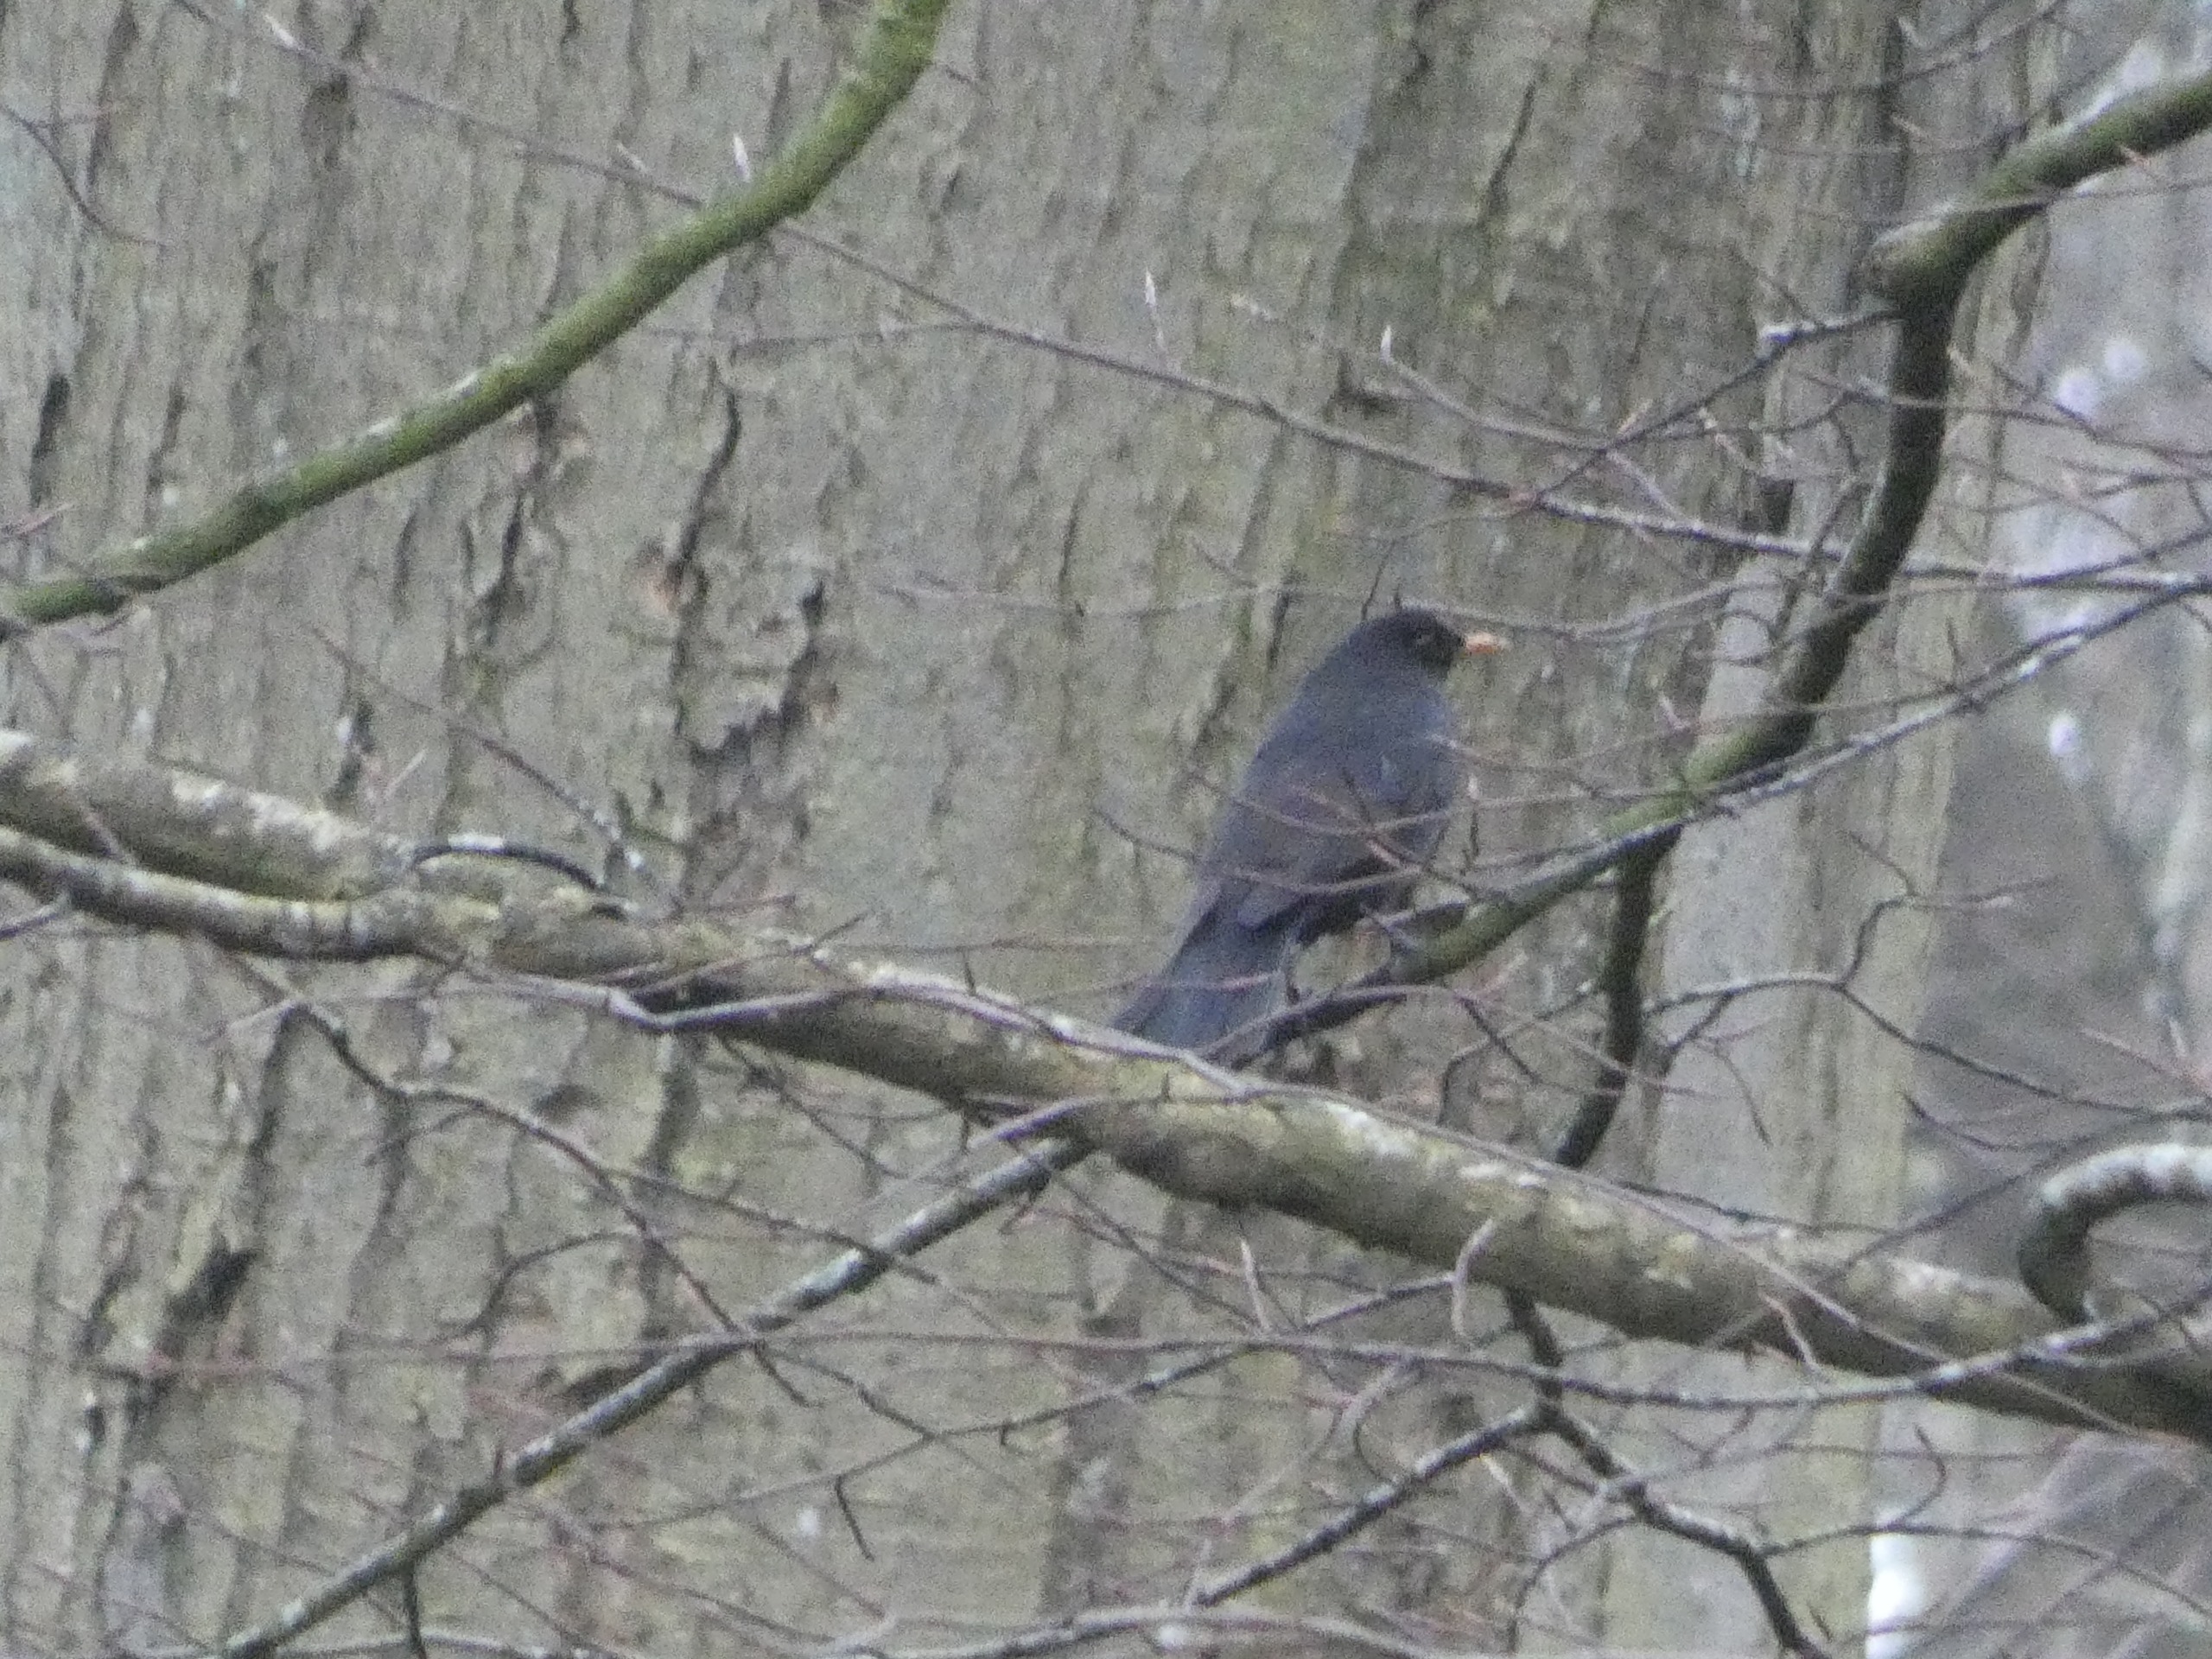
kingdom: Animalia
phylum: Chordata
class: Aves
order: Passeriformes
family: Turdidae
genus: Turdus
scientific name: Turdus merula
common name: Solsort
